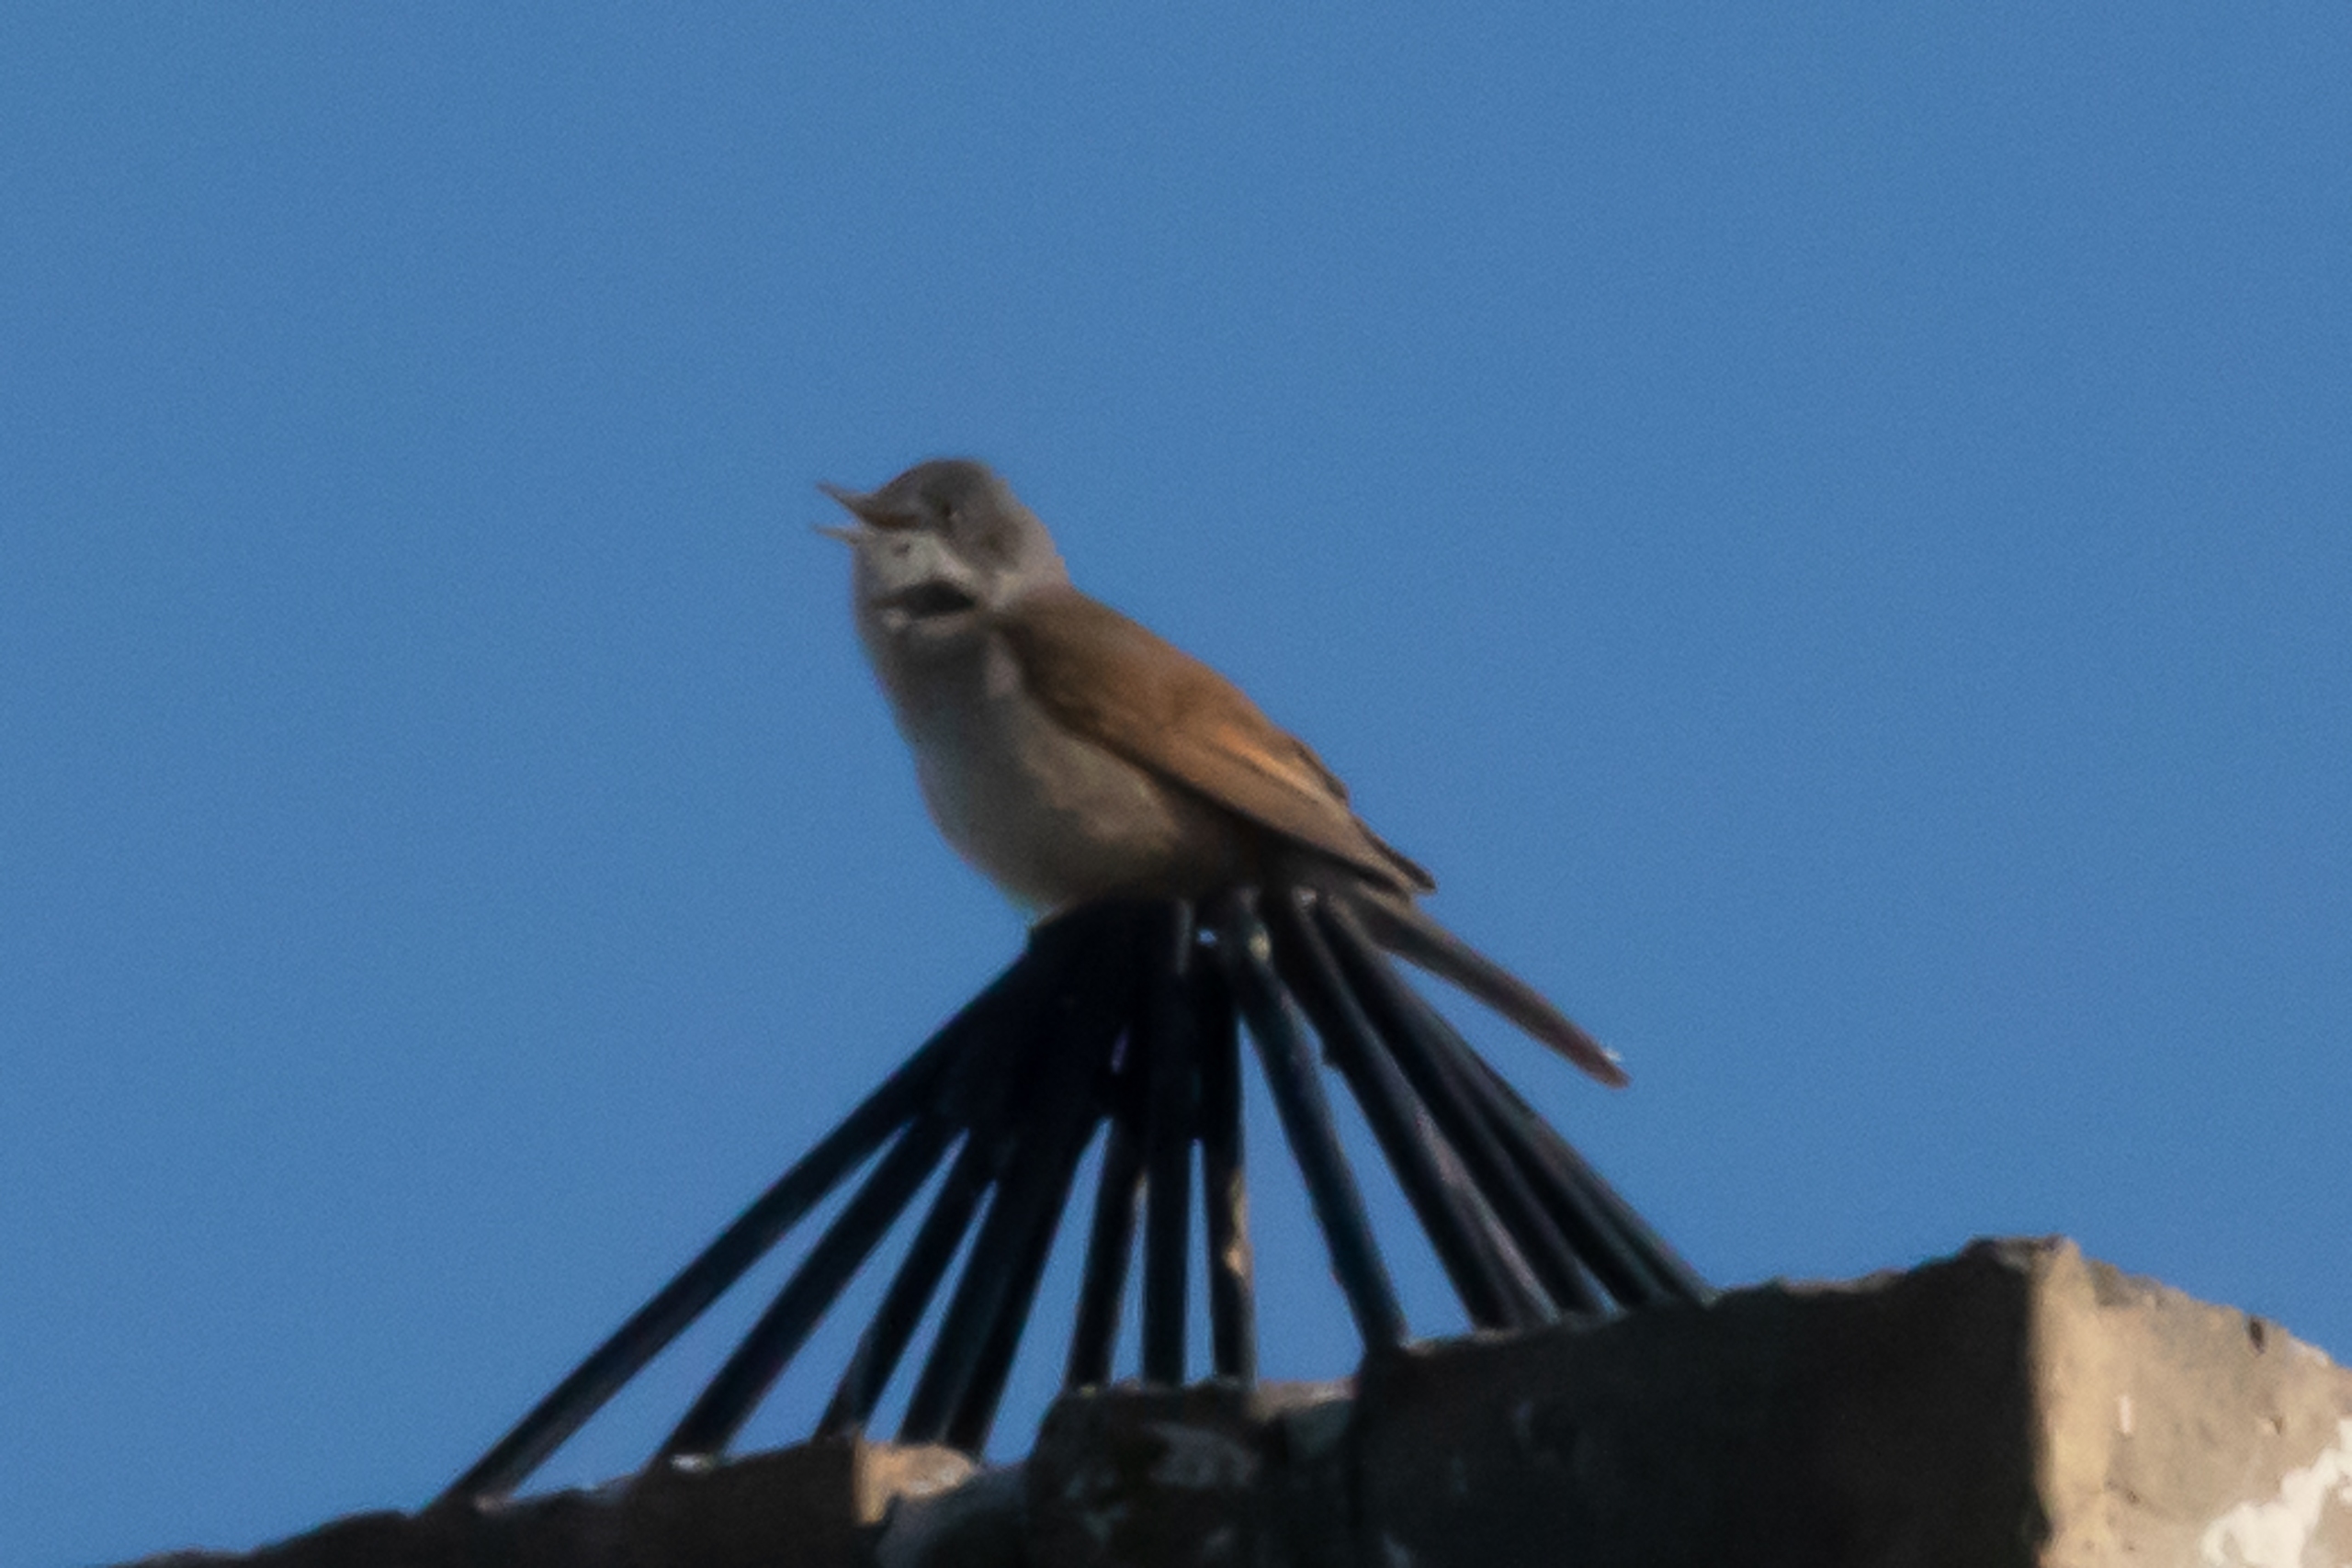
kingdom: Animalia
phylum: Chordata
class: Aves
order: Passeriformes
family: Sylviidae
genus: Sylvia
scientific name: Sylvia communis
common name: Tornsanger
